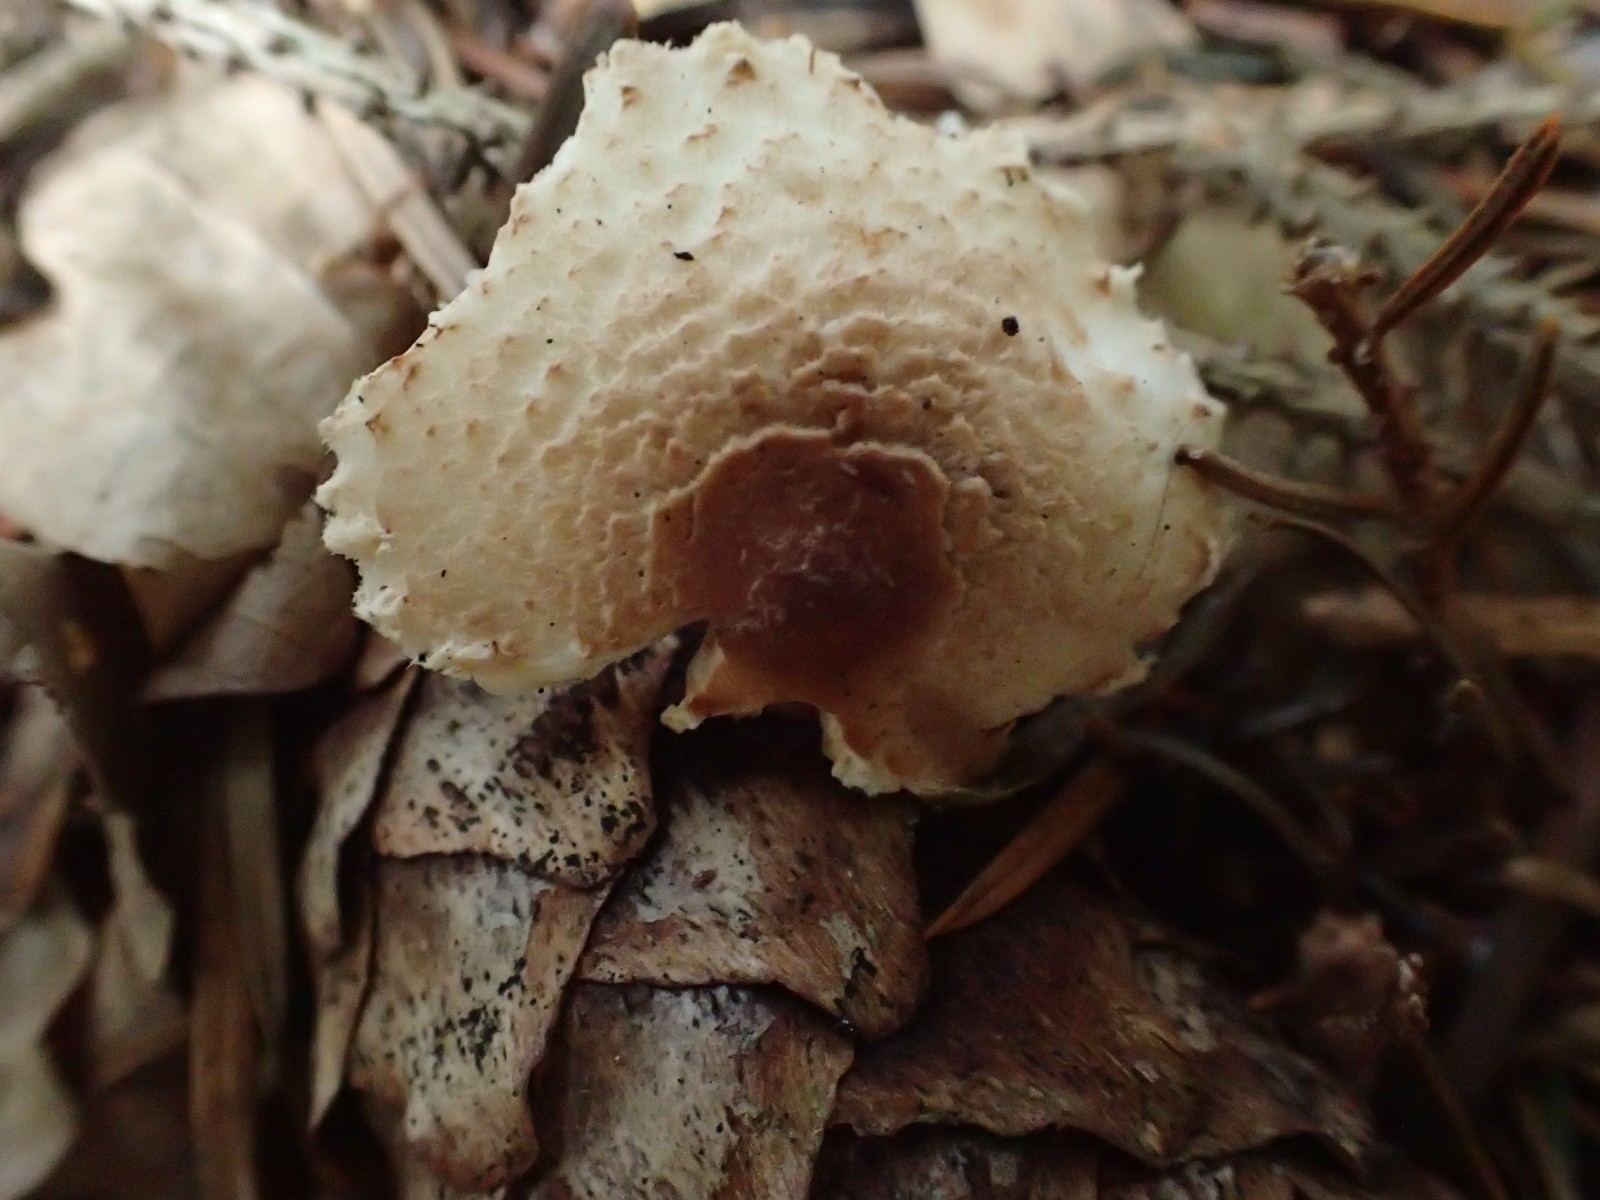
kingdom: Fungi
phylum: Basidiomycota
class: Agaricomycetes
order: Agaricales
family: Agaricaceae
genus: Lepiota
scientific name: Lepiota magnispora
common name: gulfnugget parasolhat
